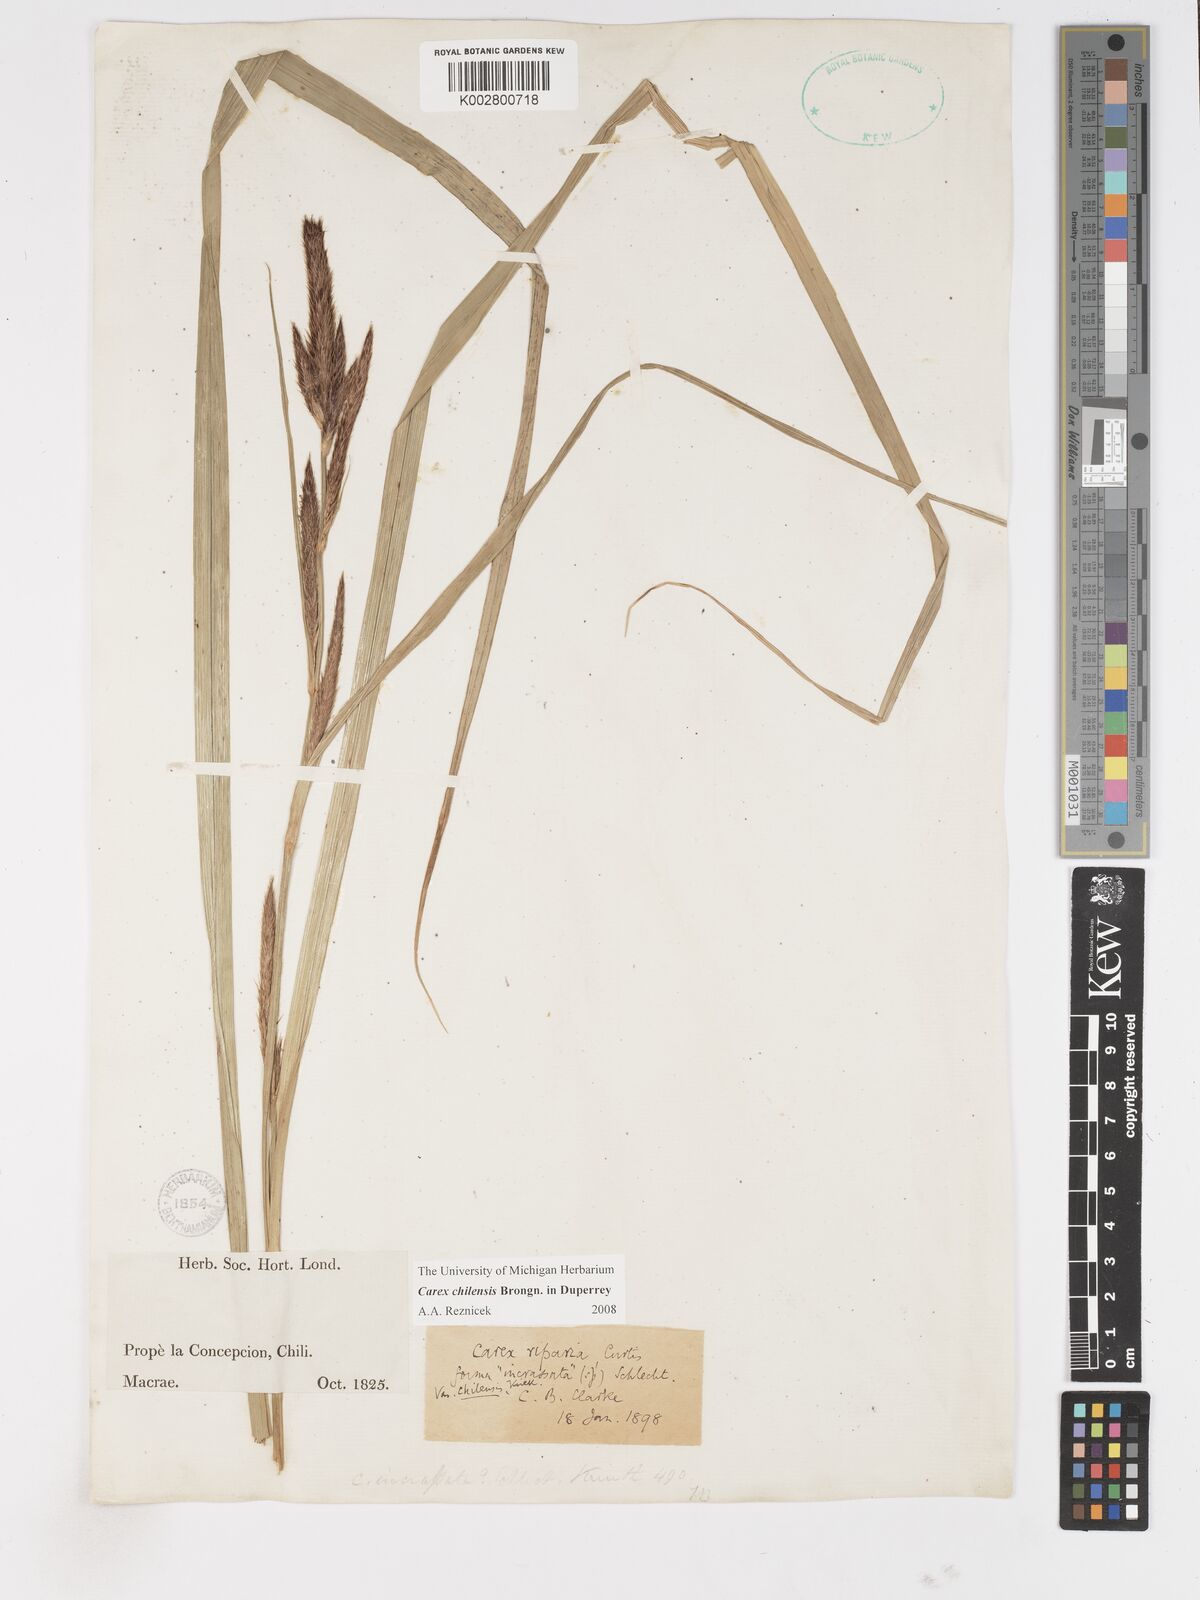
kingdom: Plantae
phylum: Tracheophyta
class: Liliopsida
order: Poales
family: Cyperaceae
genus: Carex
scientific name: Carex chilensis
